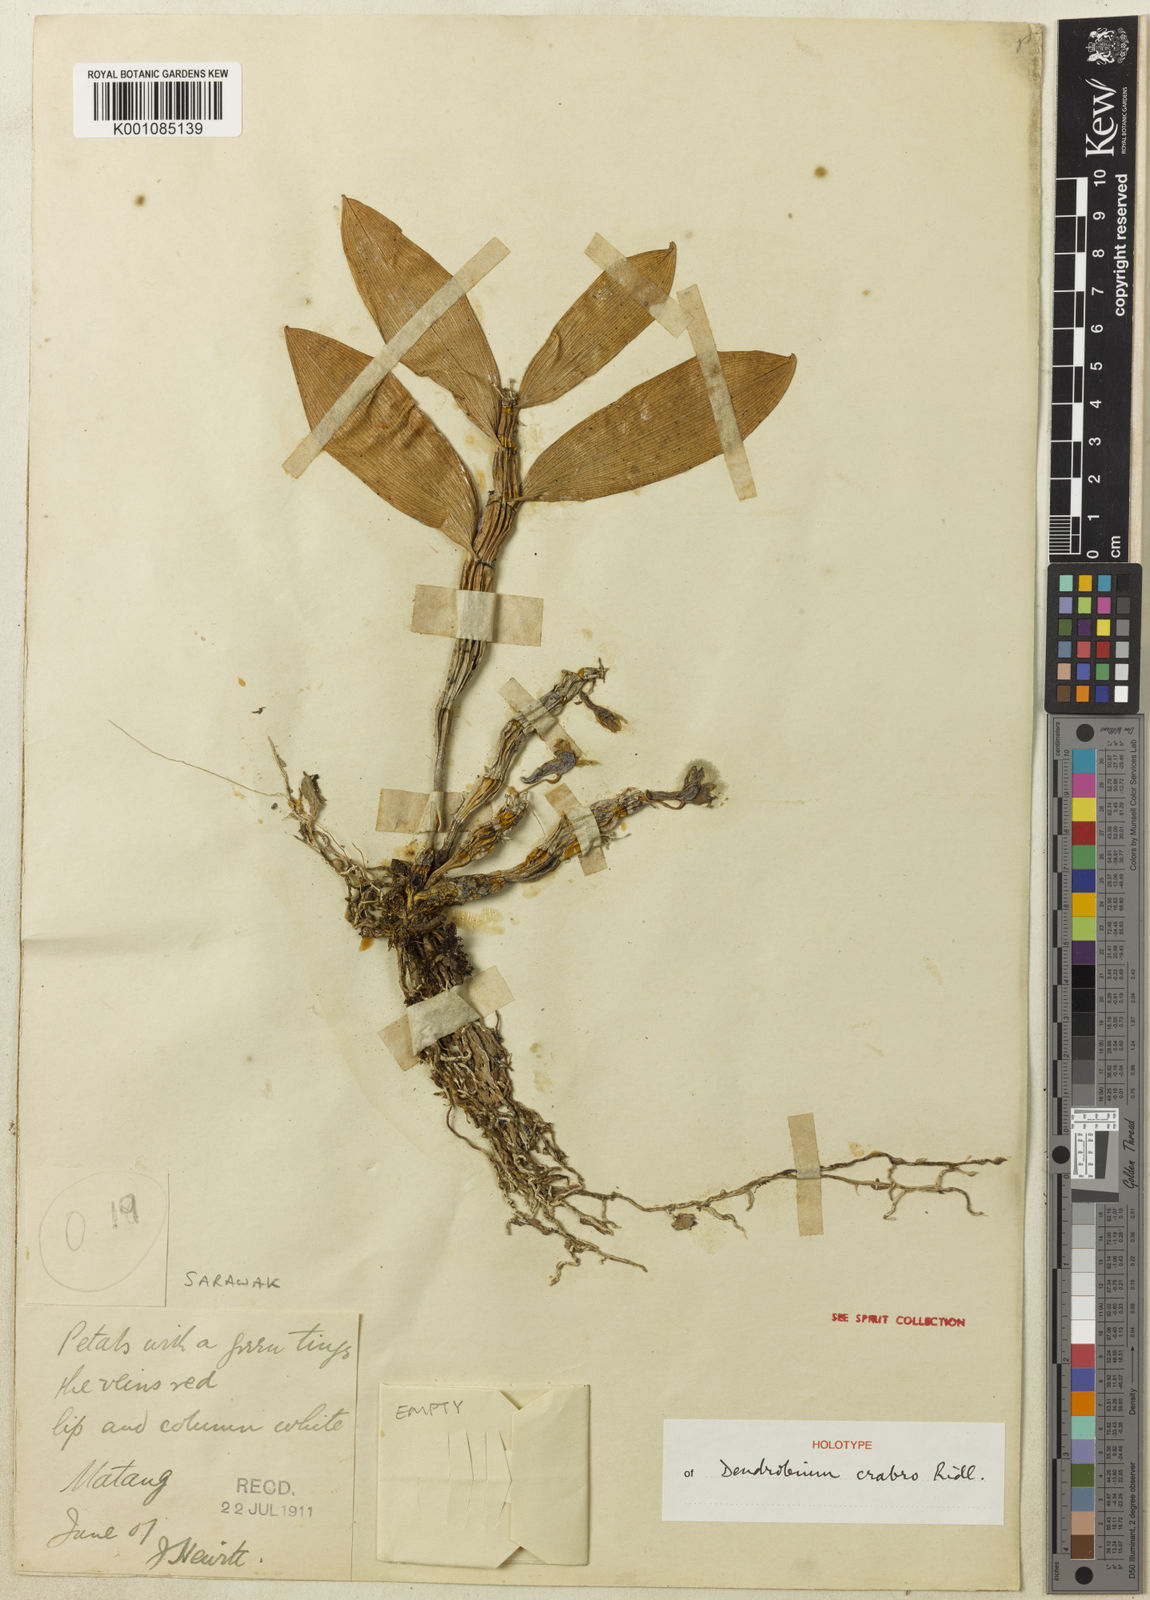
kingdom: Plantae
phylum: Tracheophyta
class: Liliopsida
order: Asparagales
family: Orchidaceae
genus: Dendrobium
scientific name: Dendrobium crabro
